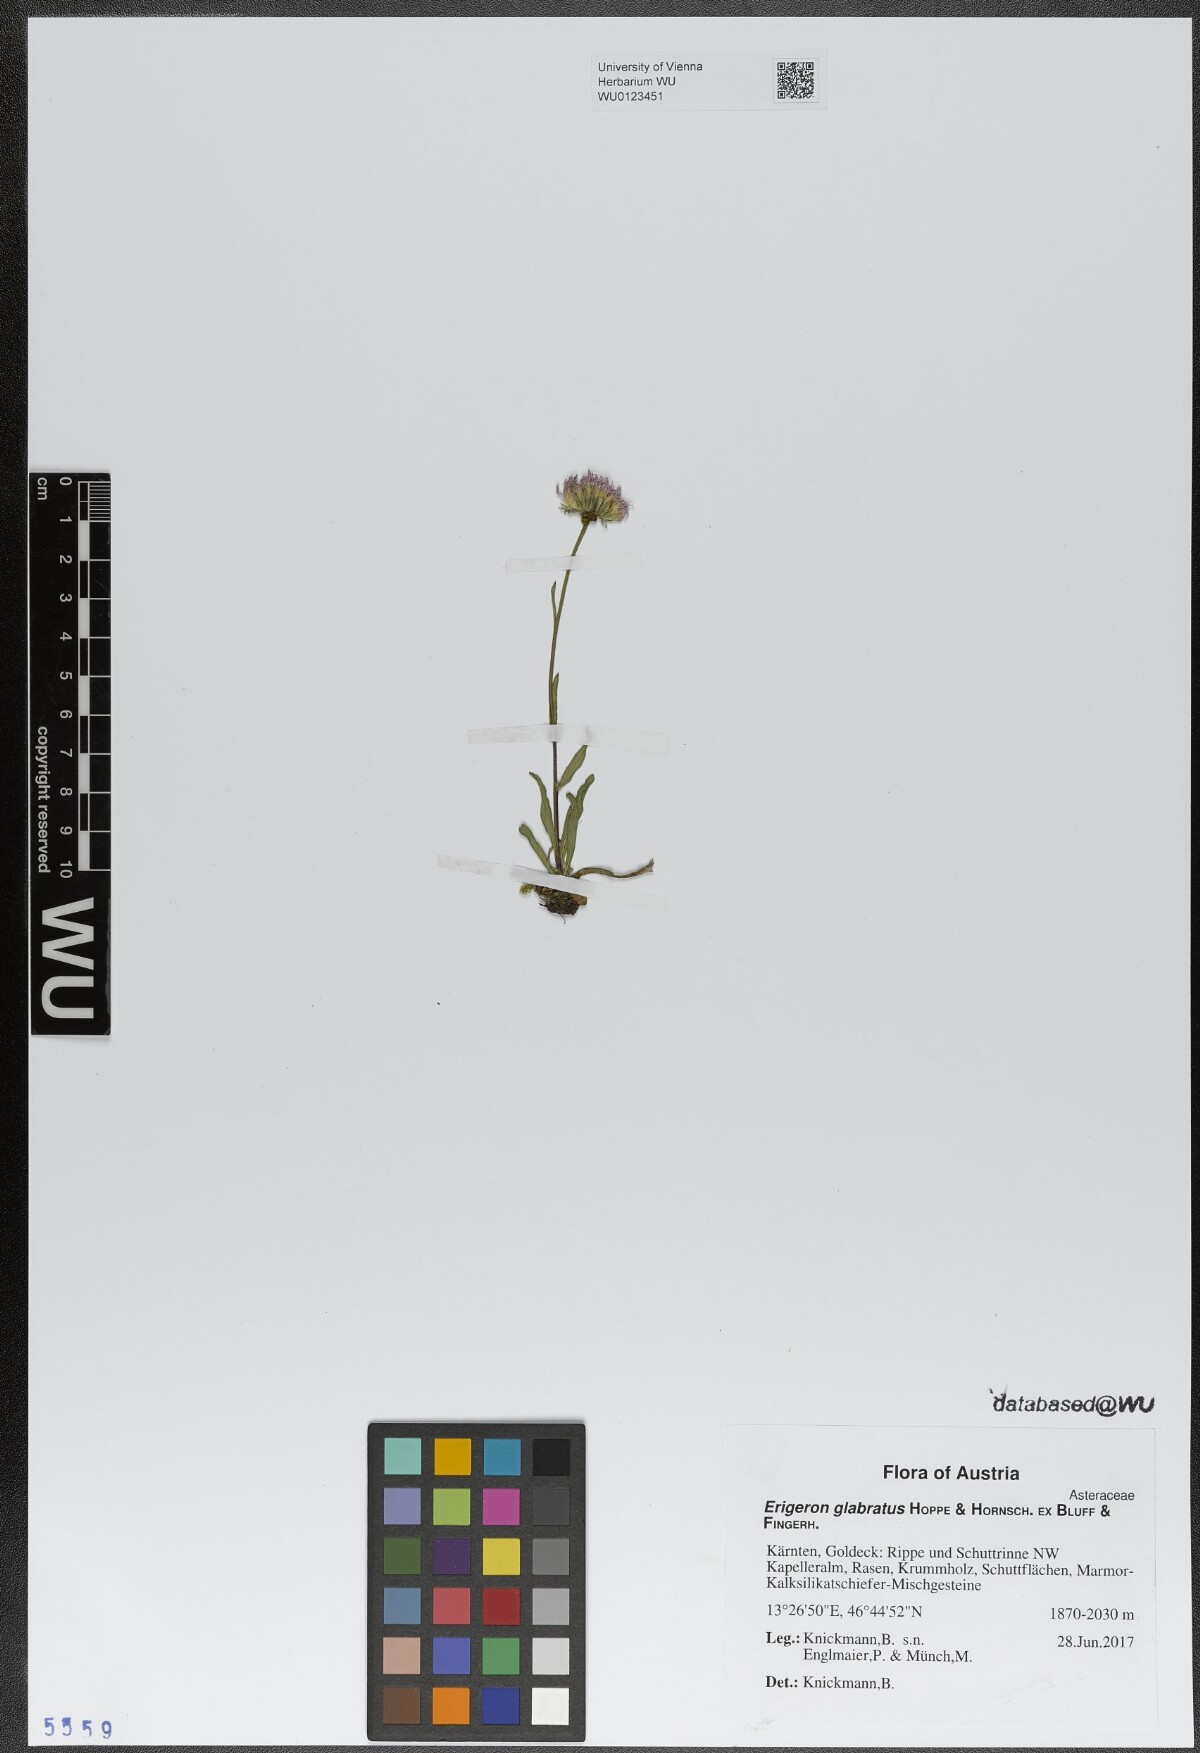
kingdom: Plantae
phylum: Tracheophyta
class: Magnoliopsida
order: Asterales
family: Asteraceae
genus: Erigeron
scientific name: Erigeron glabratus
